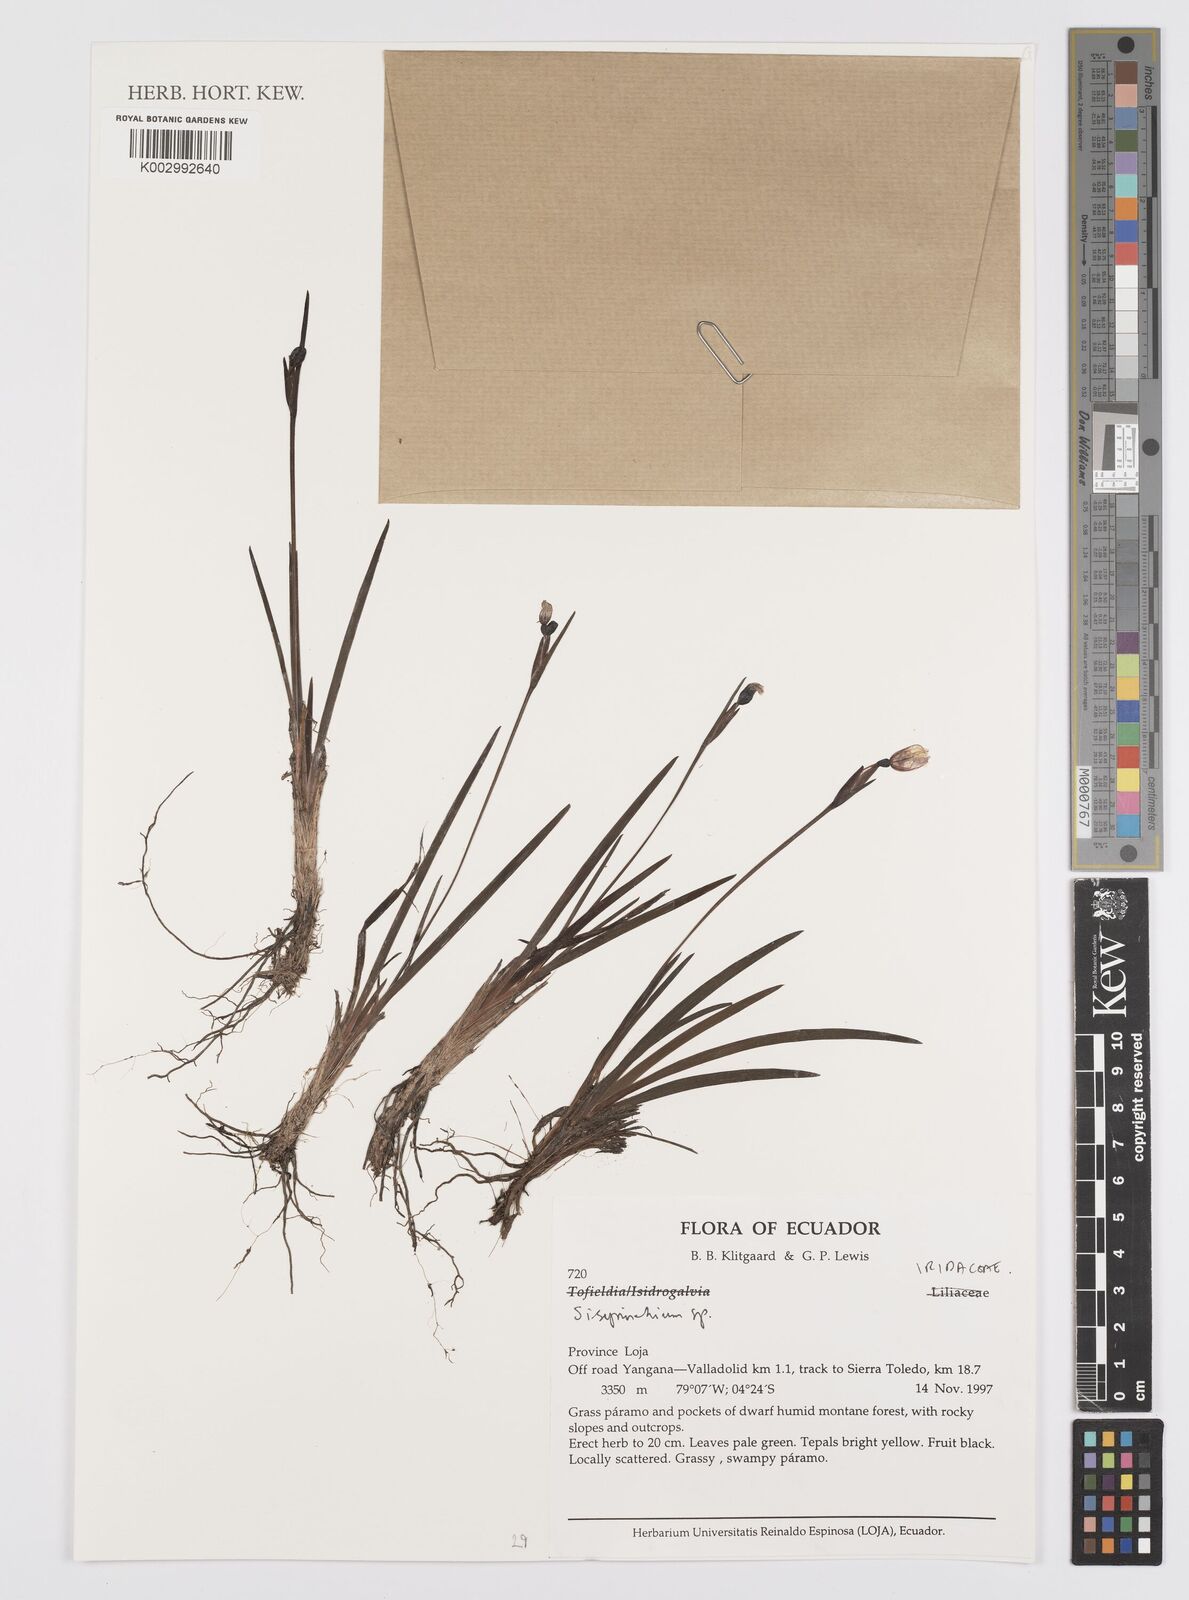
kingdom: Plantae
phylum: Tracheophyta
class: Liliopsida
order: Asparagales
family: Iridaceae
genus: Sisyrinchium
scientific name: Sisyrinchium
